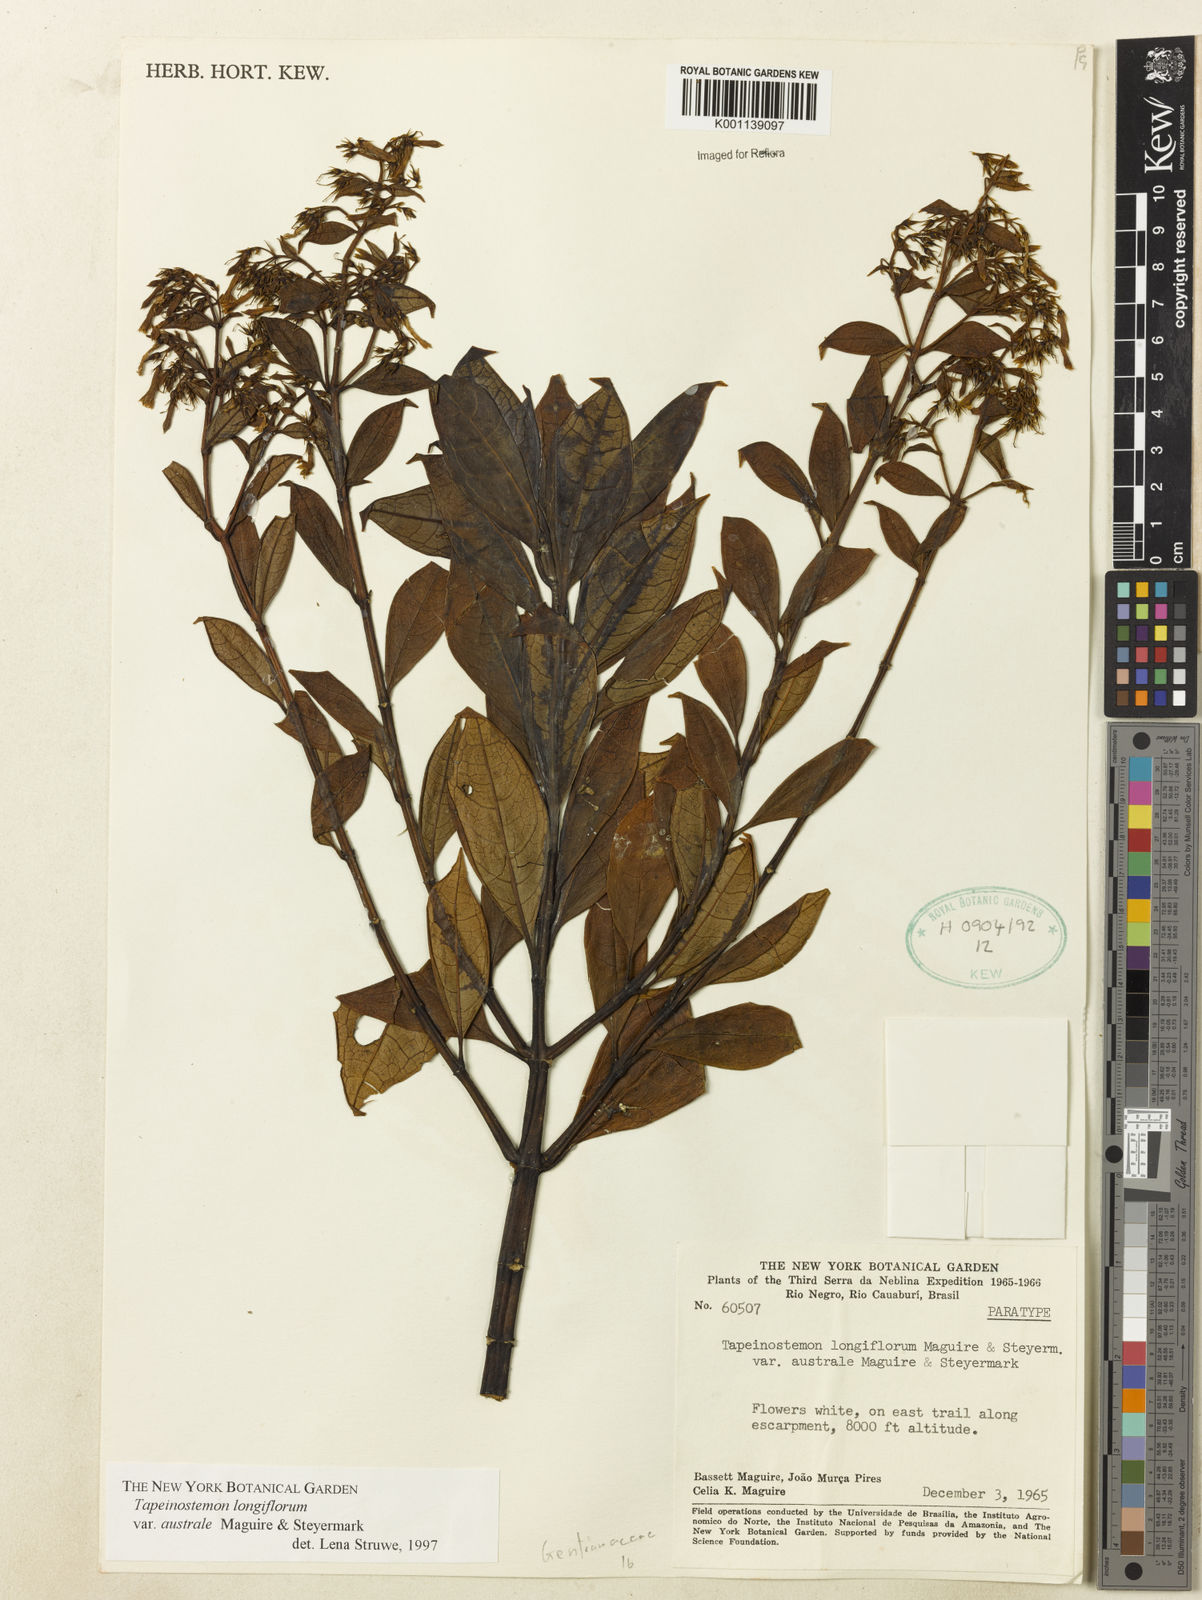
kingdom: Plantae
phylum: Tracheophyta
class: Magnoliopsida
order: Gentianales
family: Gentianaceae
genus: Tapeinostemon
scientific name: Tapeinostemon longiflorus
